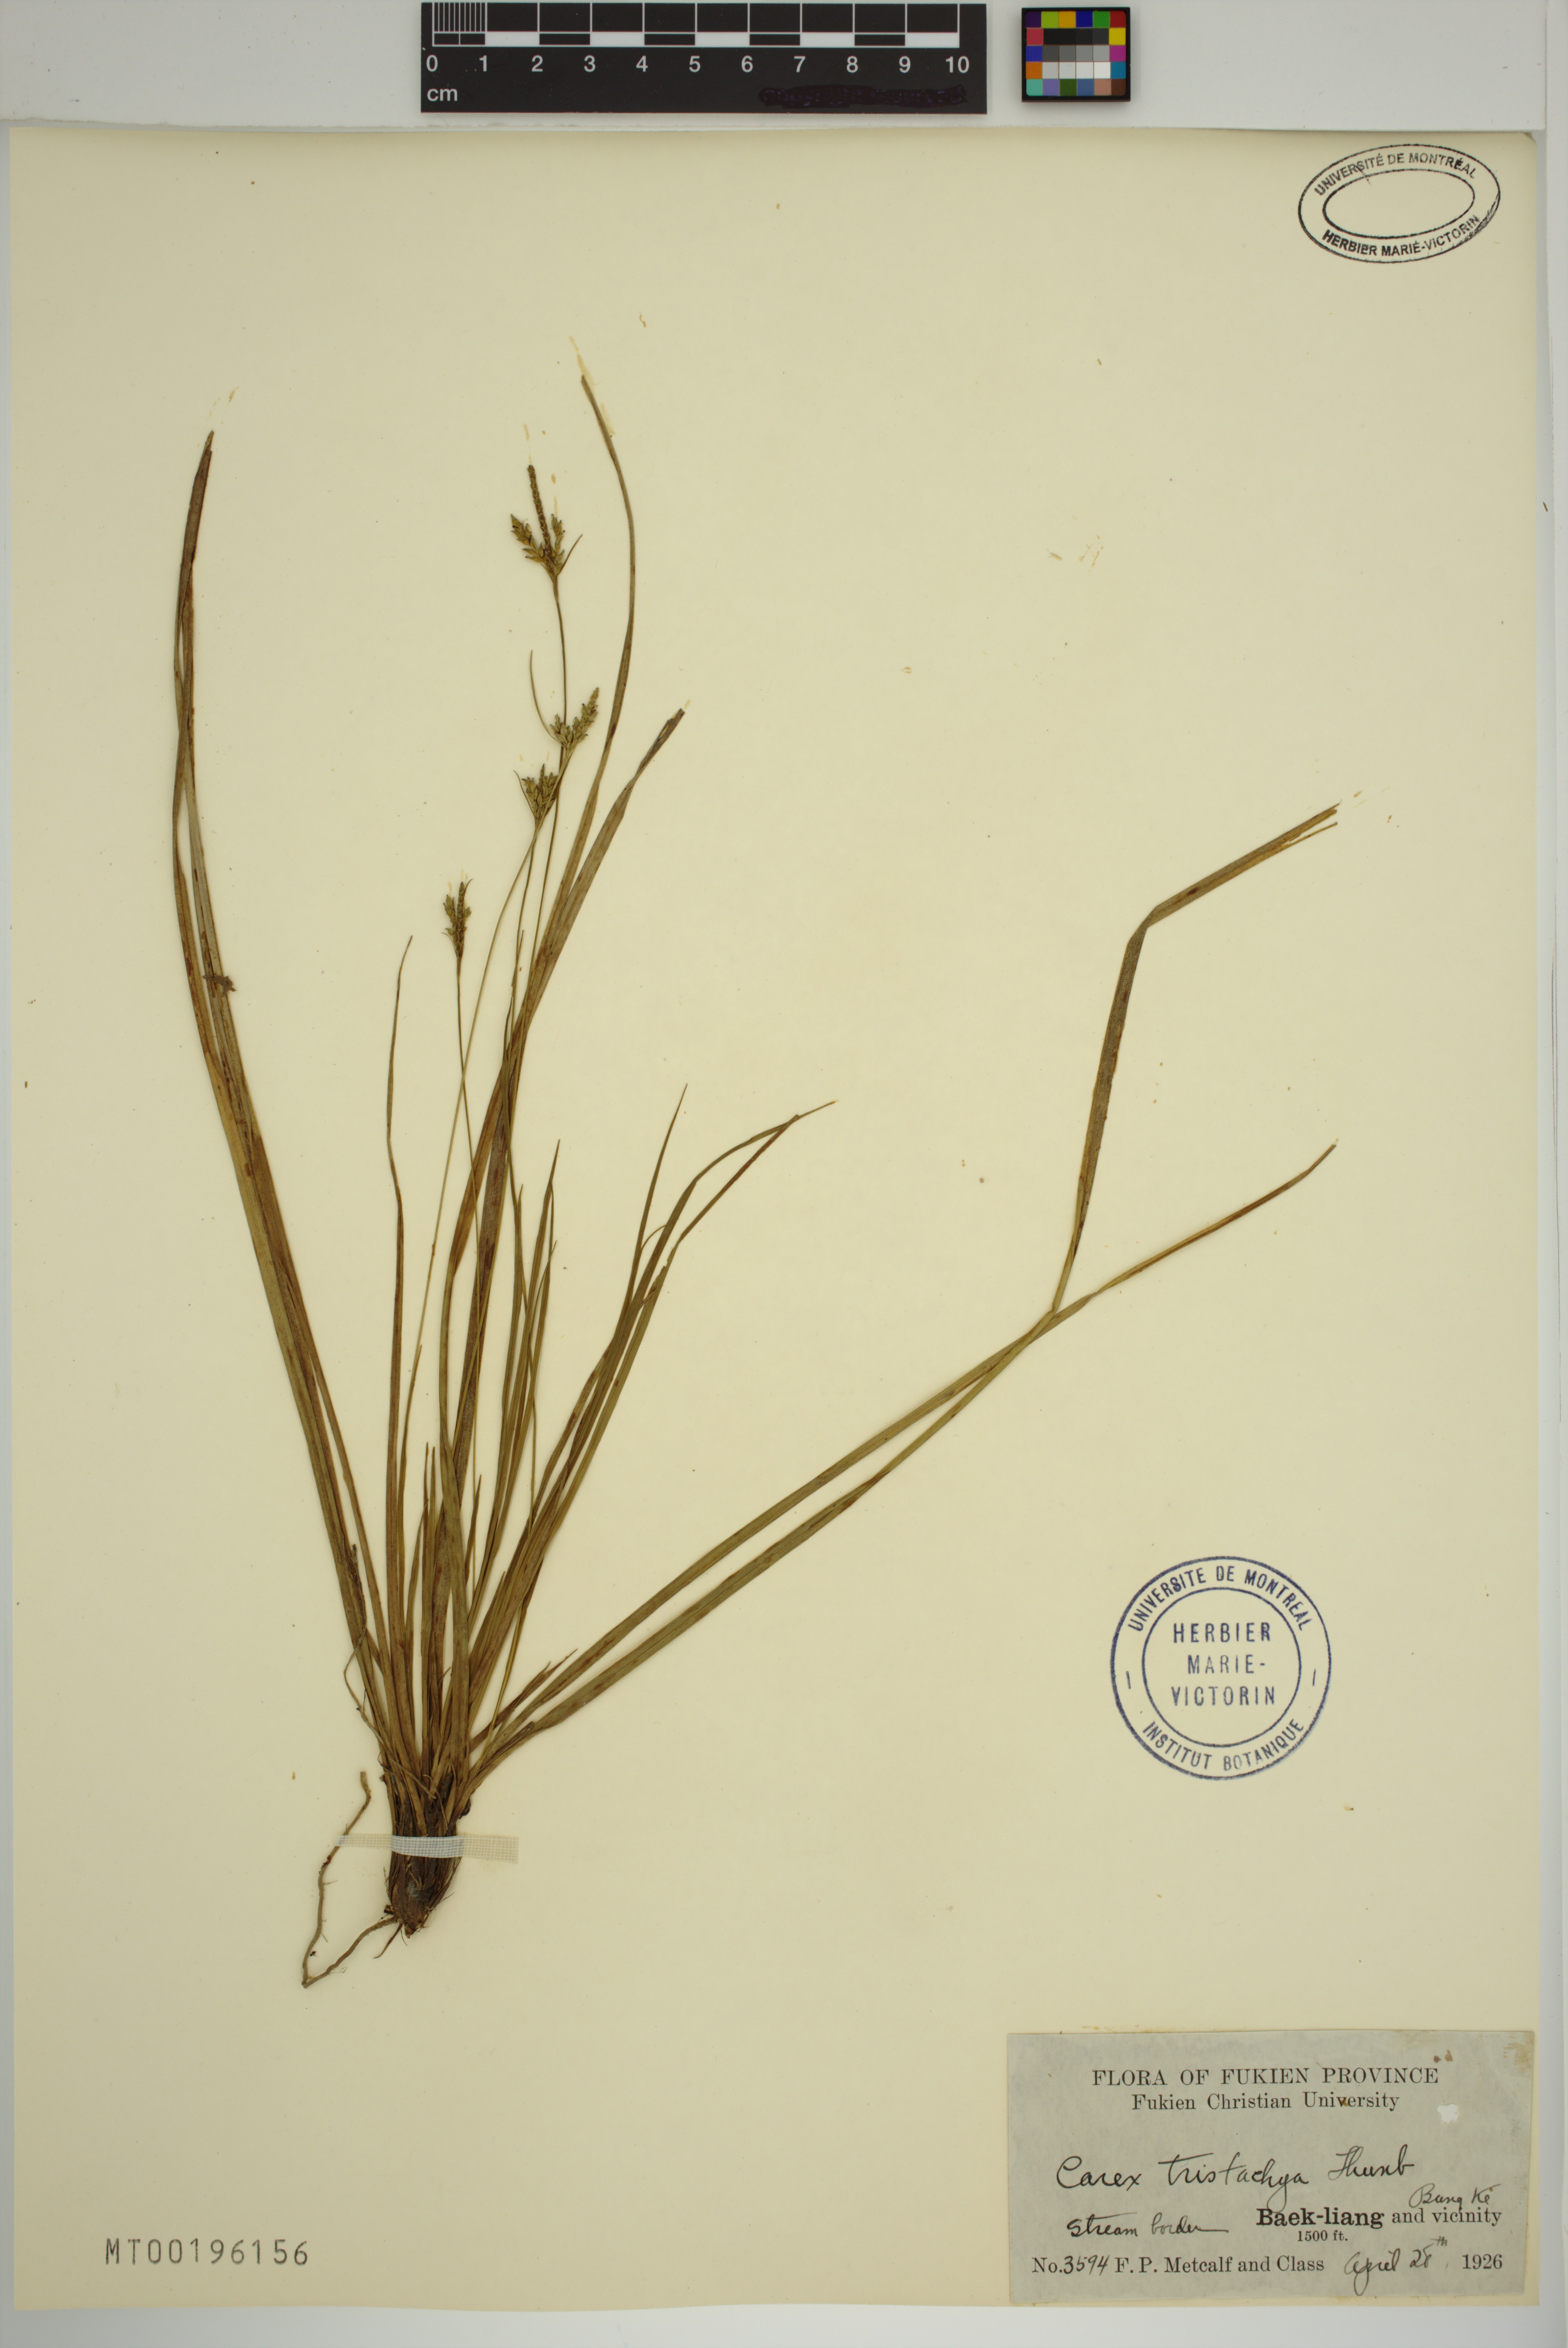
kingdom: Plantae
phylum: Tracheophyta
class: Liliopsida
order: Poales
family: Cyperaceae
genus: Carex
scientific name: Carex tristachya
